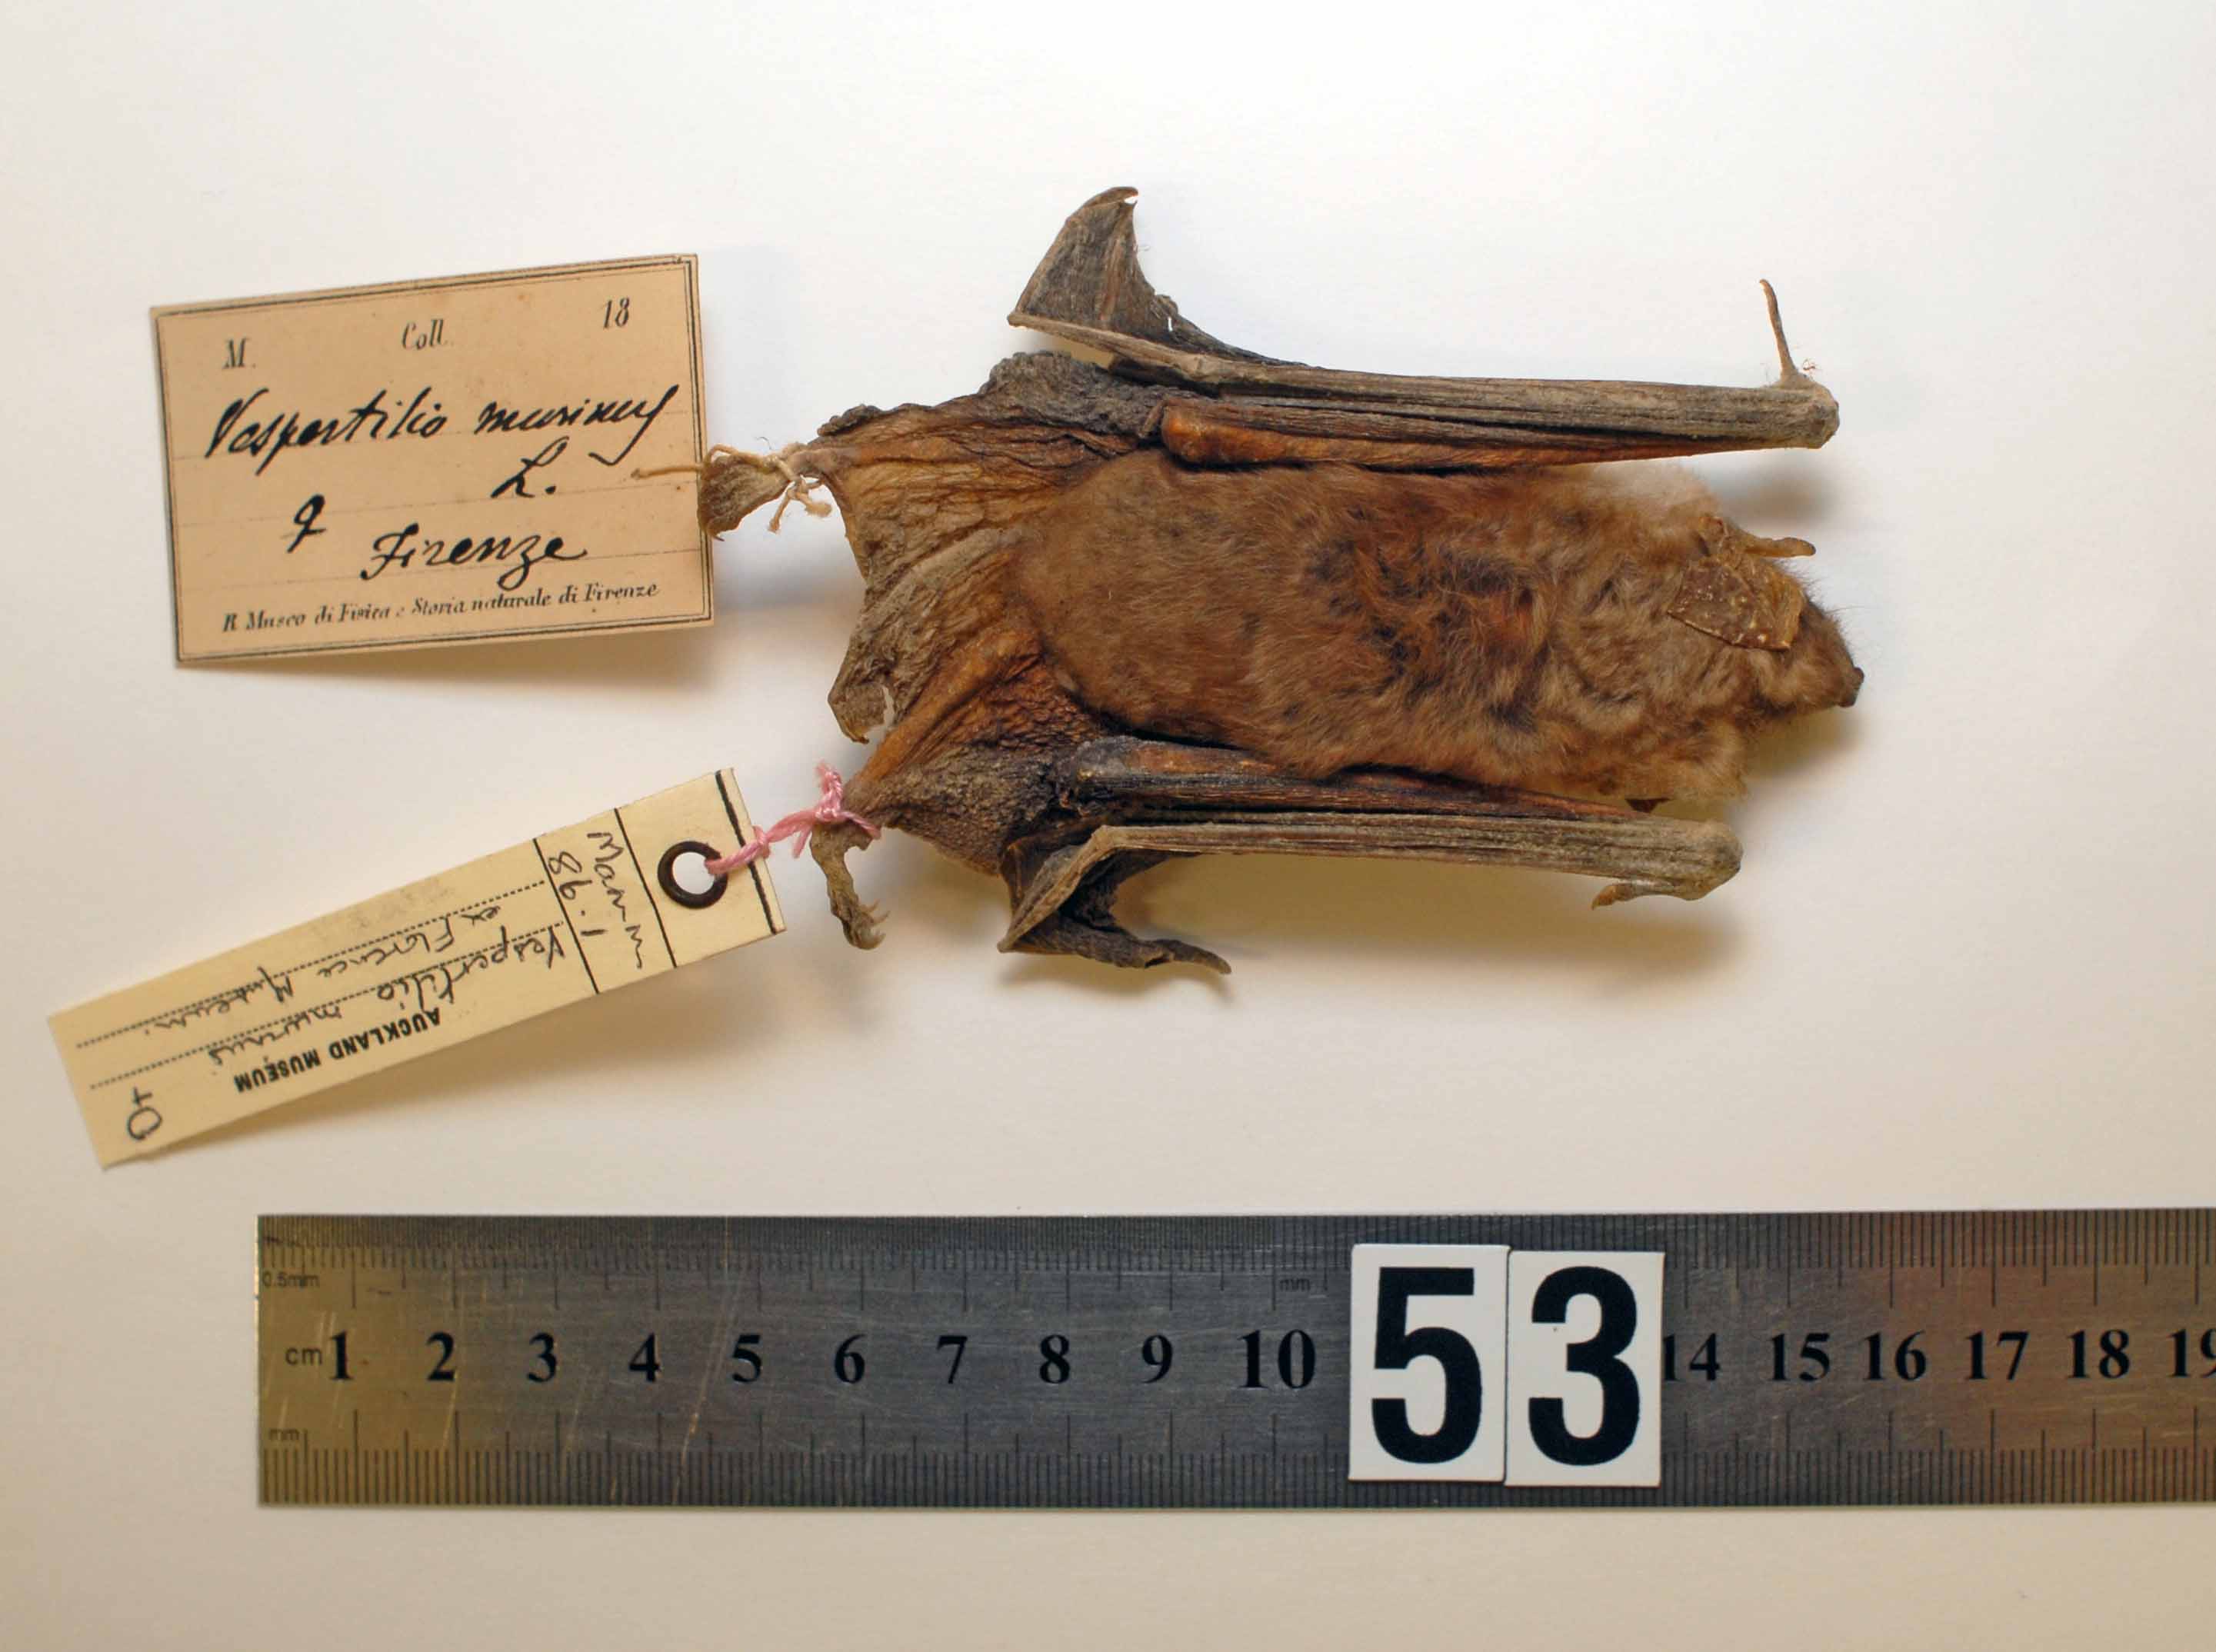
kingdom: Animalia
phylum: Chordata
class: Mammalia
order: Chiroptera
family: Vespertilionidae
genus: Vespertilio
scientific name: Vespertilio murinus
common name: Particolored bat
